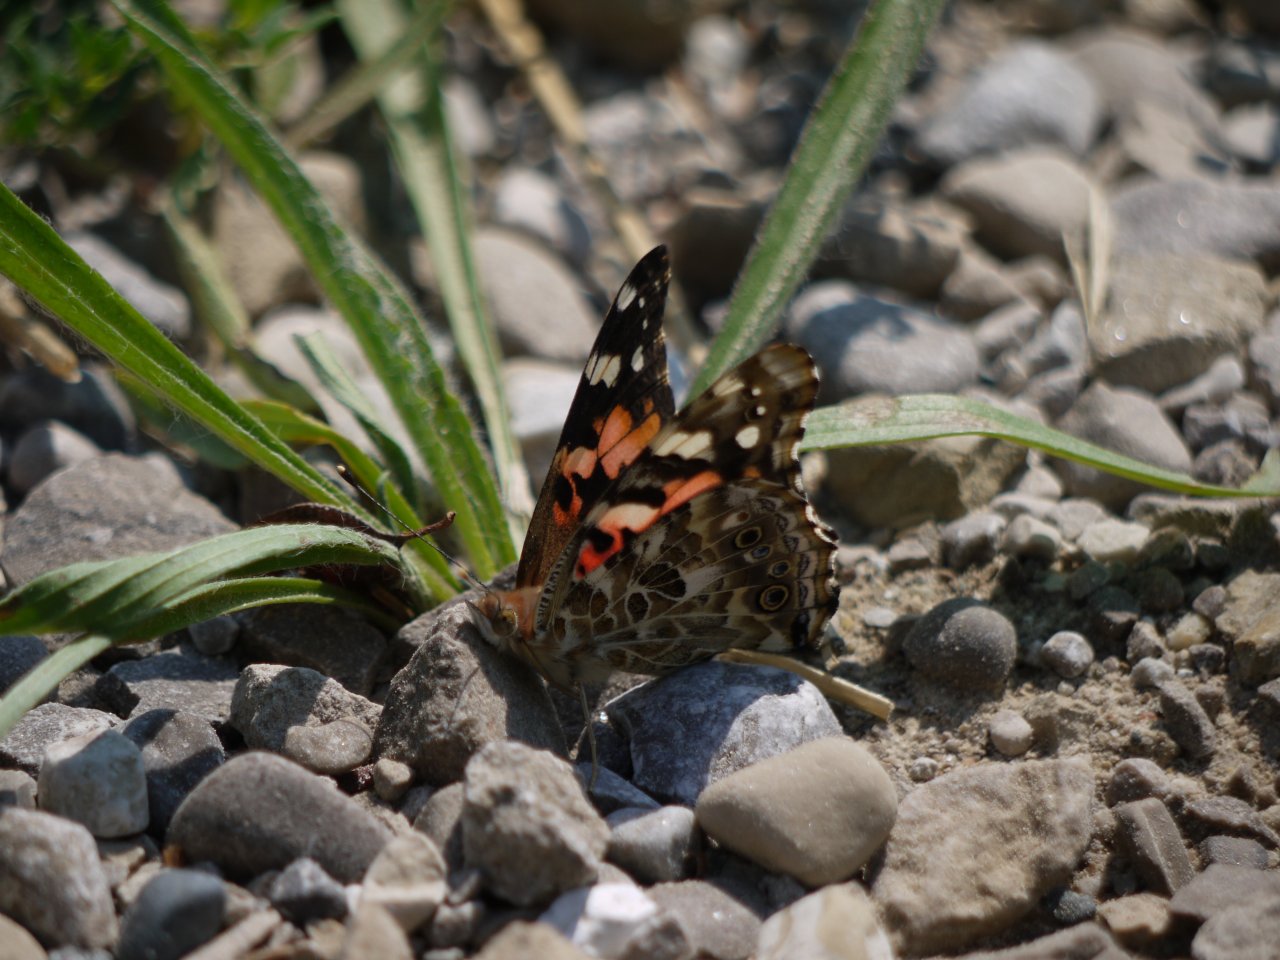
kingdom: Animalia
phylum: Arthropoda
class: Insecta
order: Lepidoptera
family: Nymphalidae
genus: Vanessa
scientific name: Vanessa cardui
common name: Painted Lady
